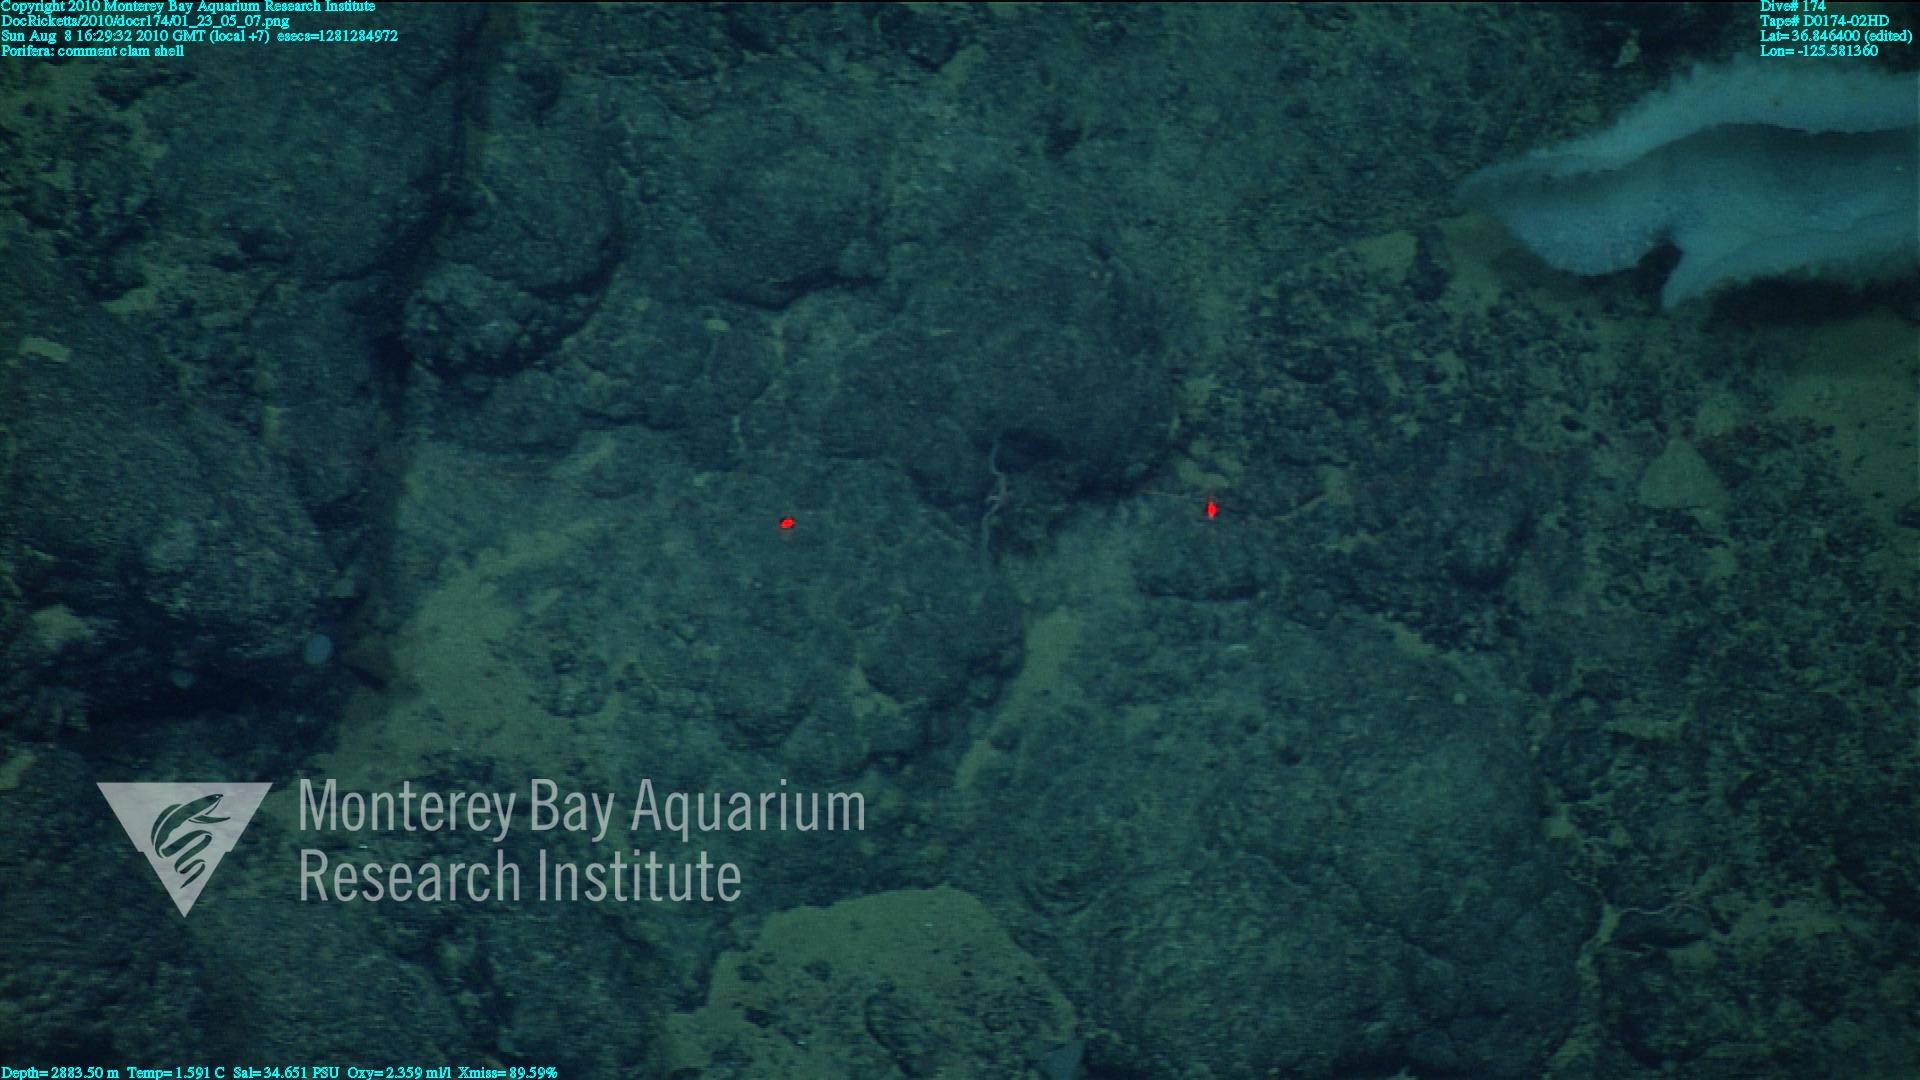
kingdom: Animalia
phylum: Porifera
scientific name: Porifera
